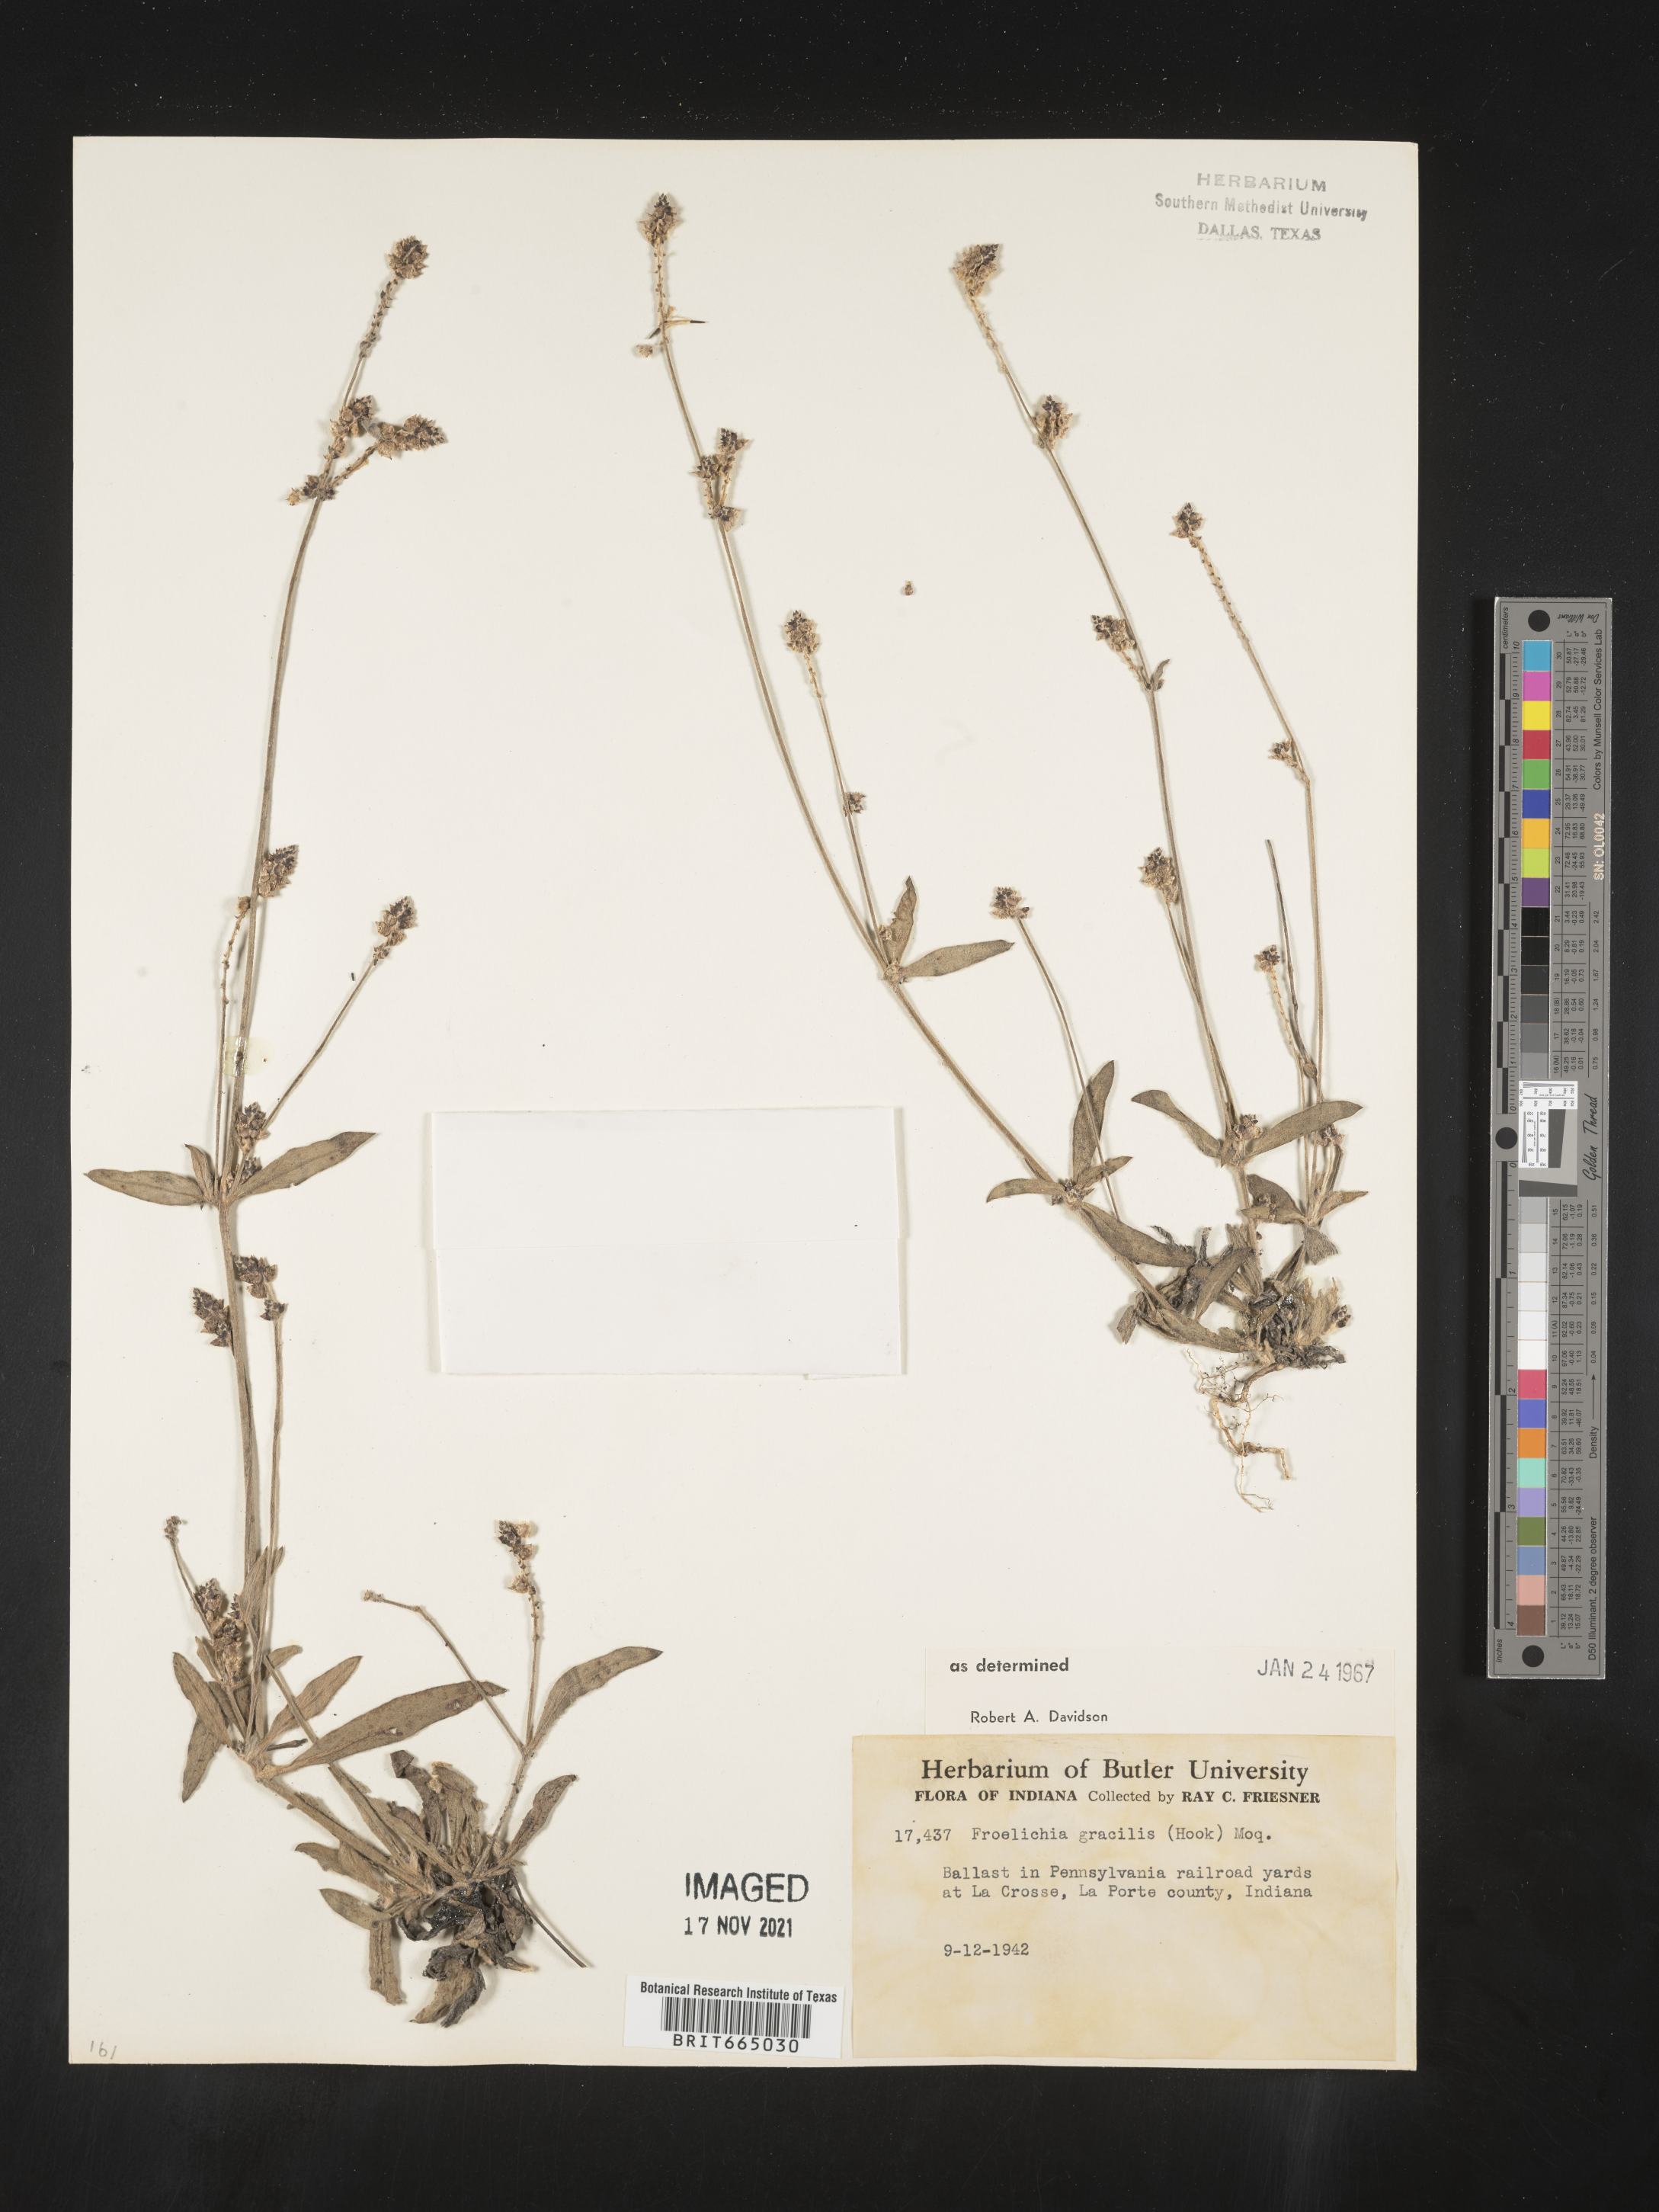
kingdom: Plantae
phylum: Tracheophyta
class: Magnoliopsida
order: Caryophyllales
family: Amaranthaceae
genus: Froelichia
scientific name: Froelichia gracilis
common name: Slender cottonweed
